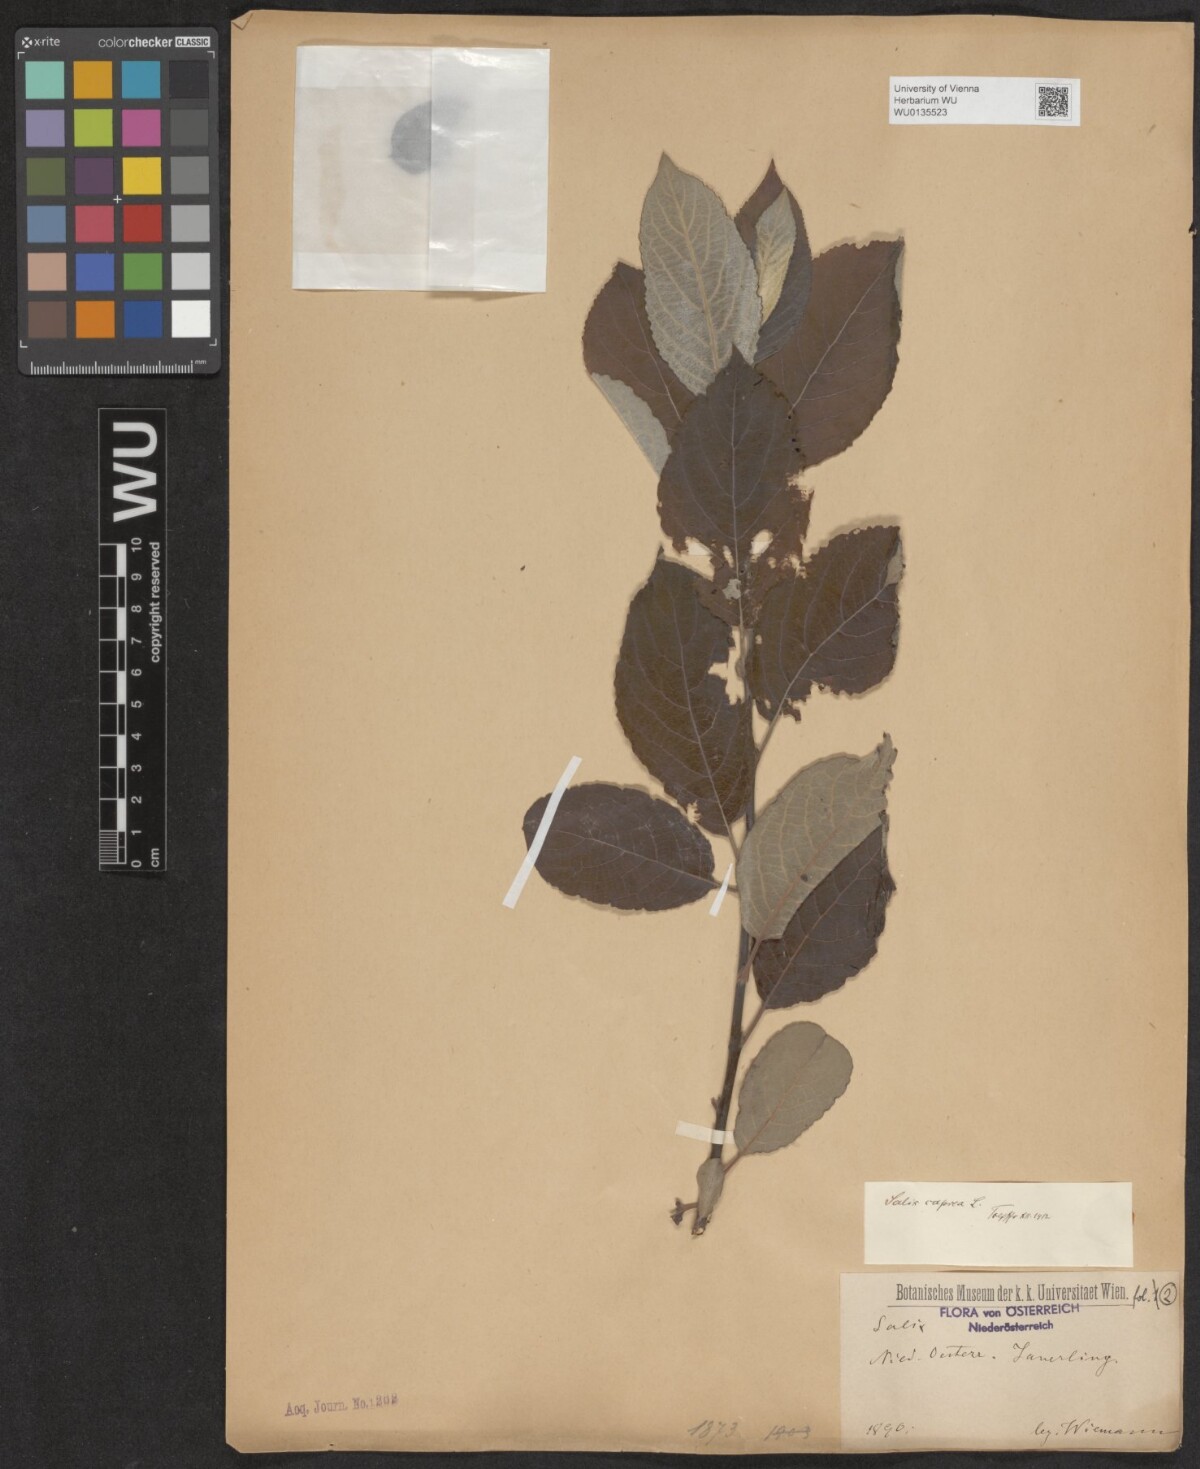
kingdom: Plantae
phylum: Tracheophyta
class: Magnoliopsida
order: Malpighiales
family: Salicaceae
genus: Salix
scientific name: Salix caprea
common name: Goat willow
